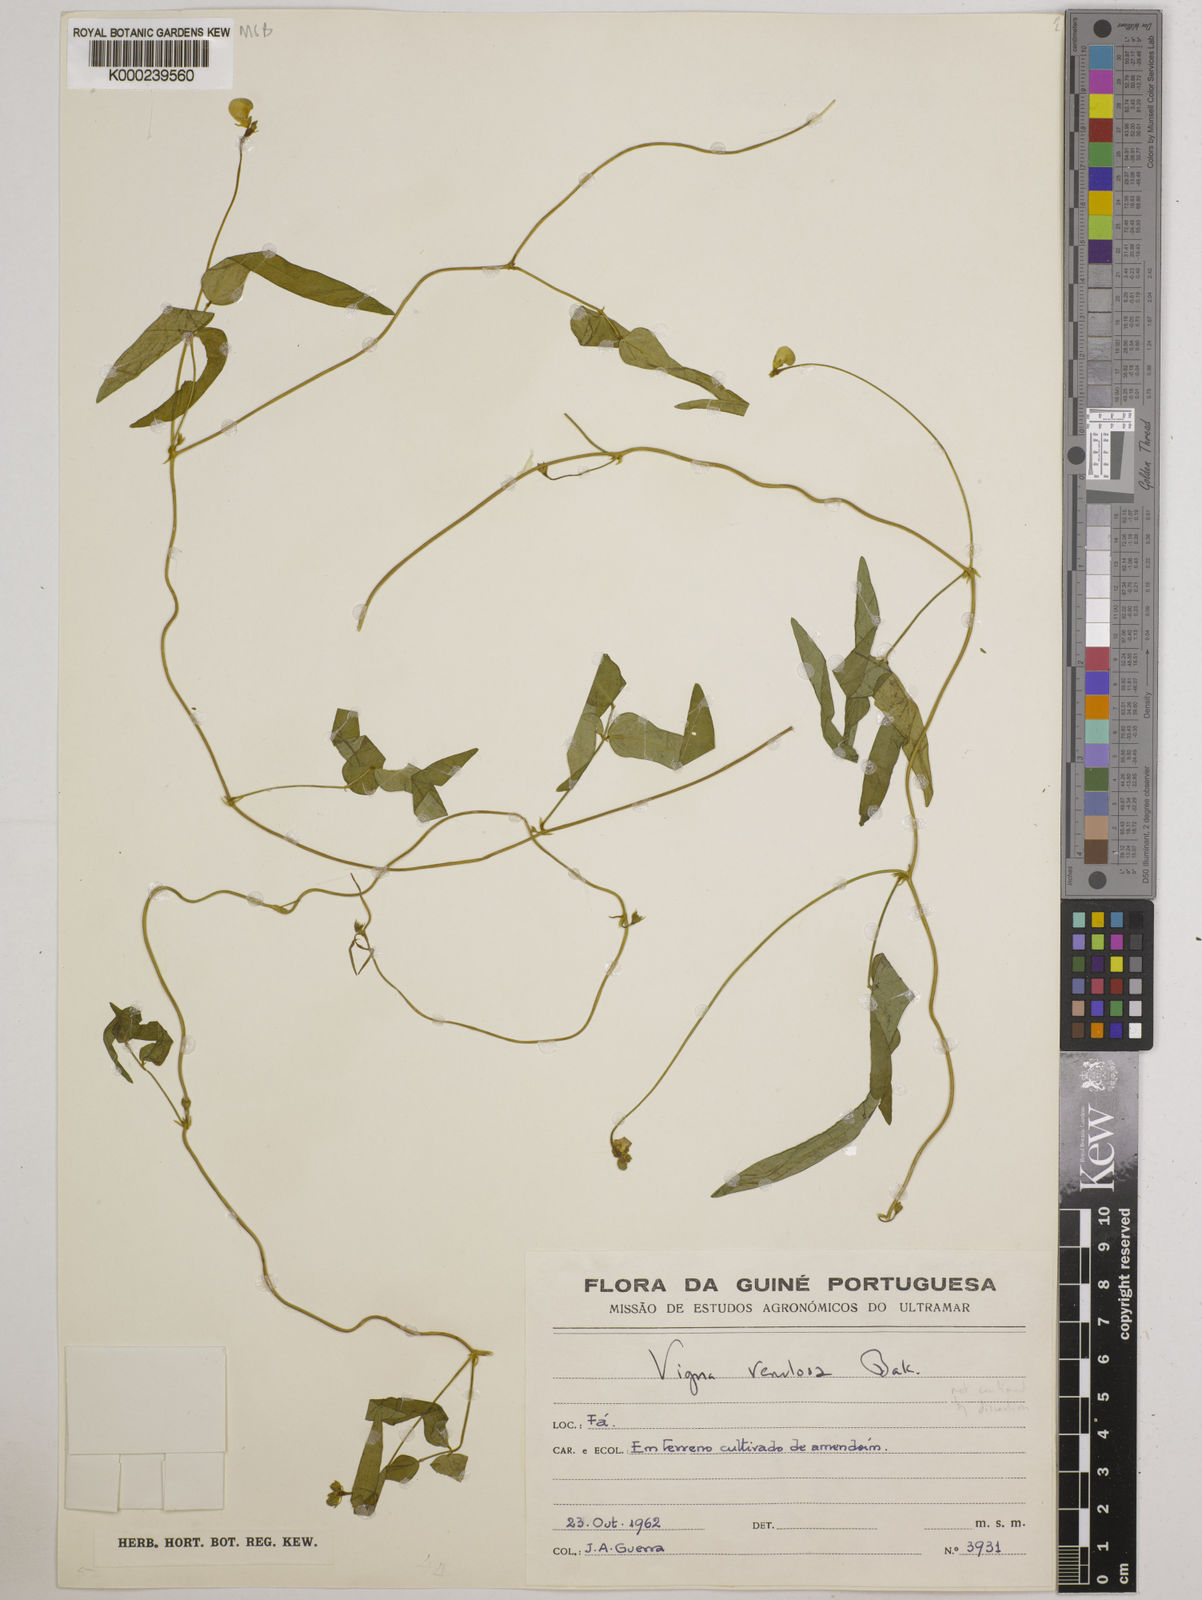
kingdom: Plantae
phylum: Tracheophyta
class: Magnoliopsida
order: Fabales
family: Fabaceae
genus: Vigna
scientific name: Vigna venulosa
